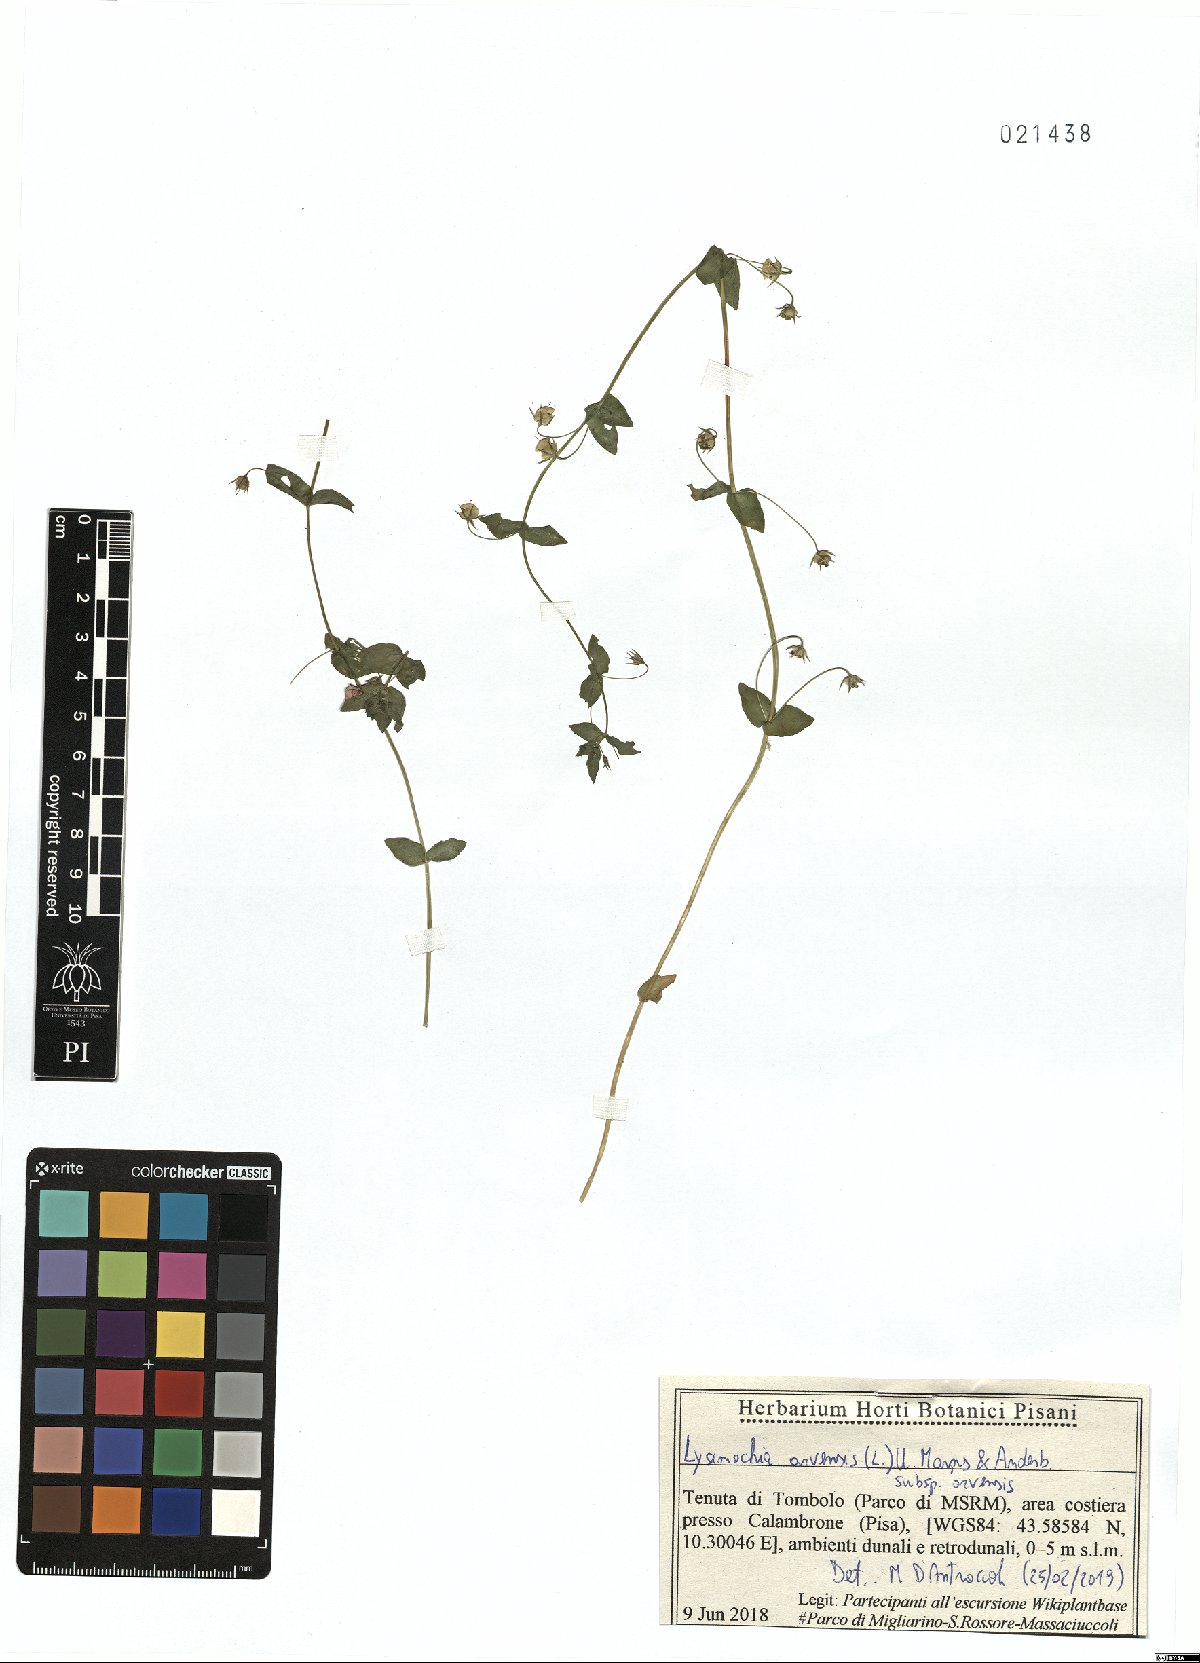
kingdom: Plantae
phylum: Tracheophyta
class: Magnoliopsida
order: Ericales
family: Primulaceae
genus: Lysimachia
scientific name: Lysimachia arvensis
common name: Scarlet pimpernel
